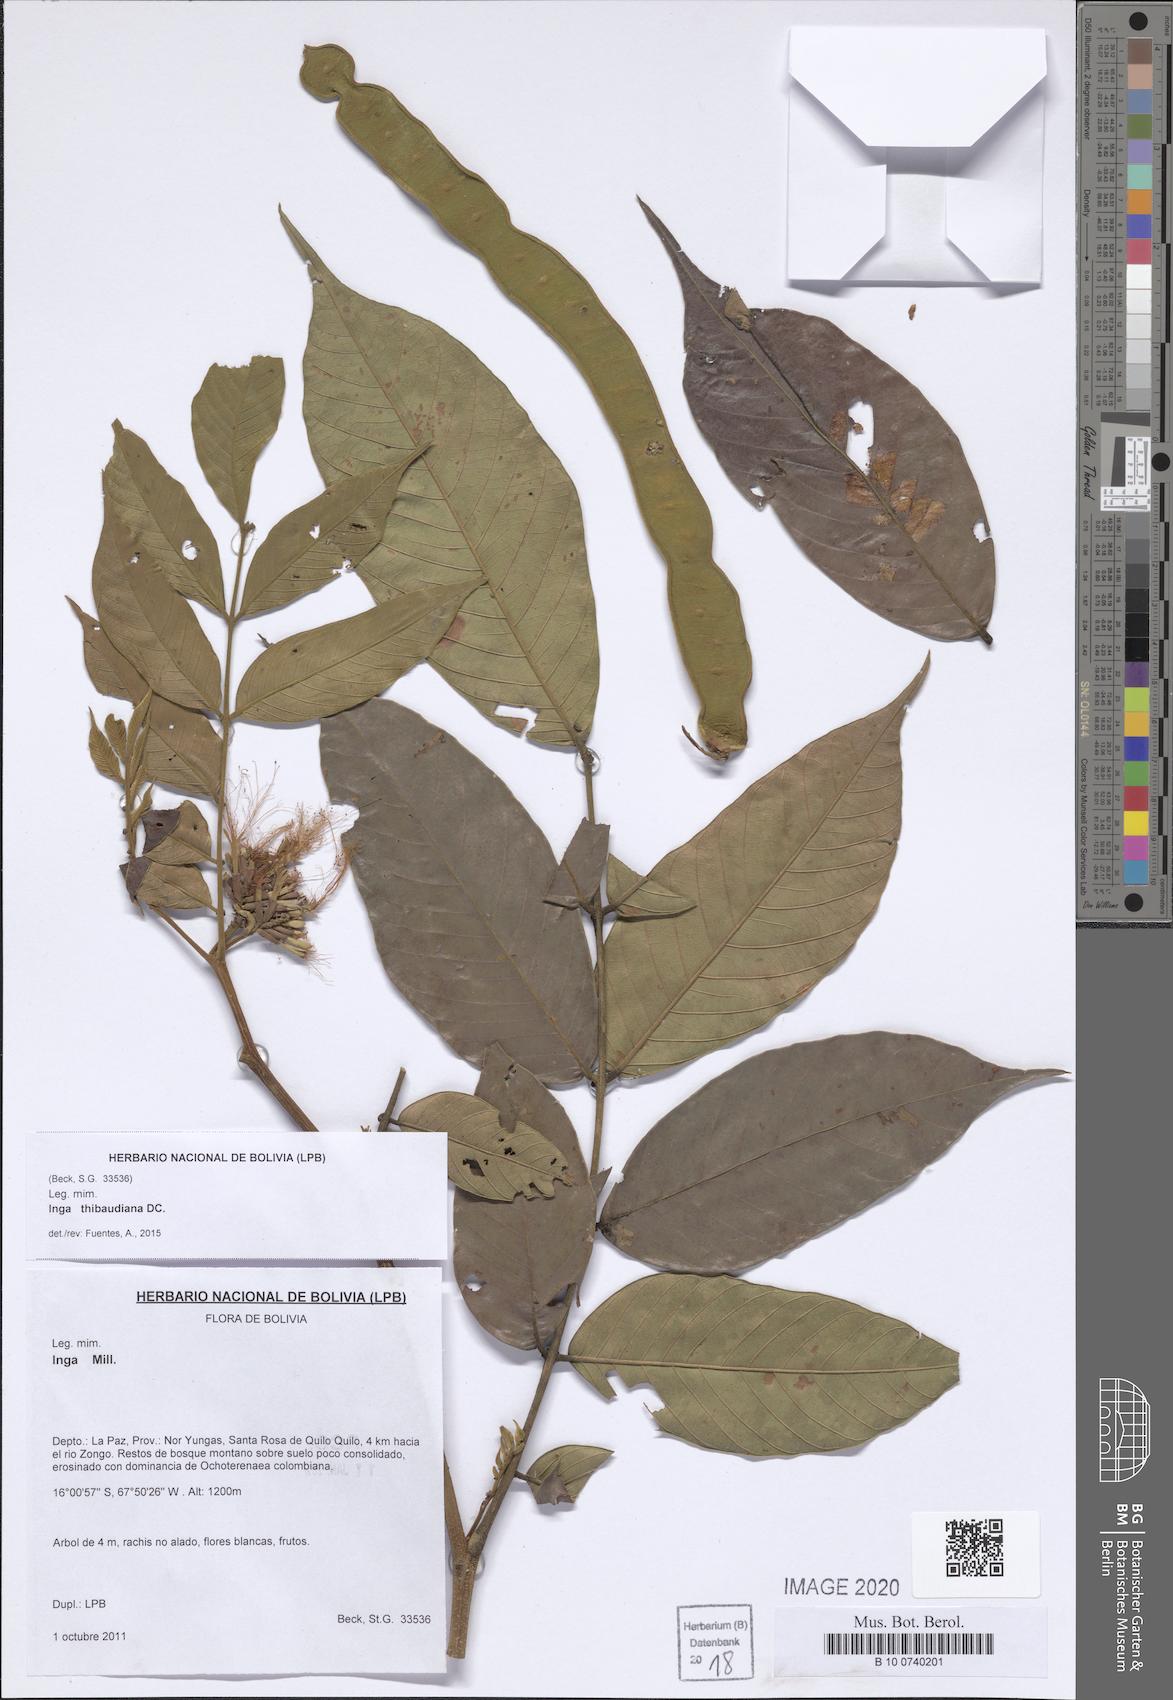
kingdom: Plantae
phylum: Tracheophyta
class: Magnoliopsida
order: Fabales
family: Fabaceae
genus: Inga
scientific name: Inga thibaudiana
